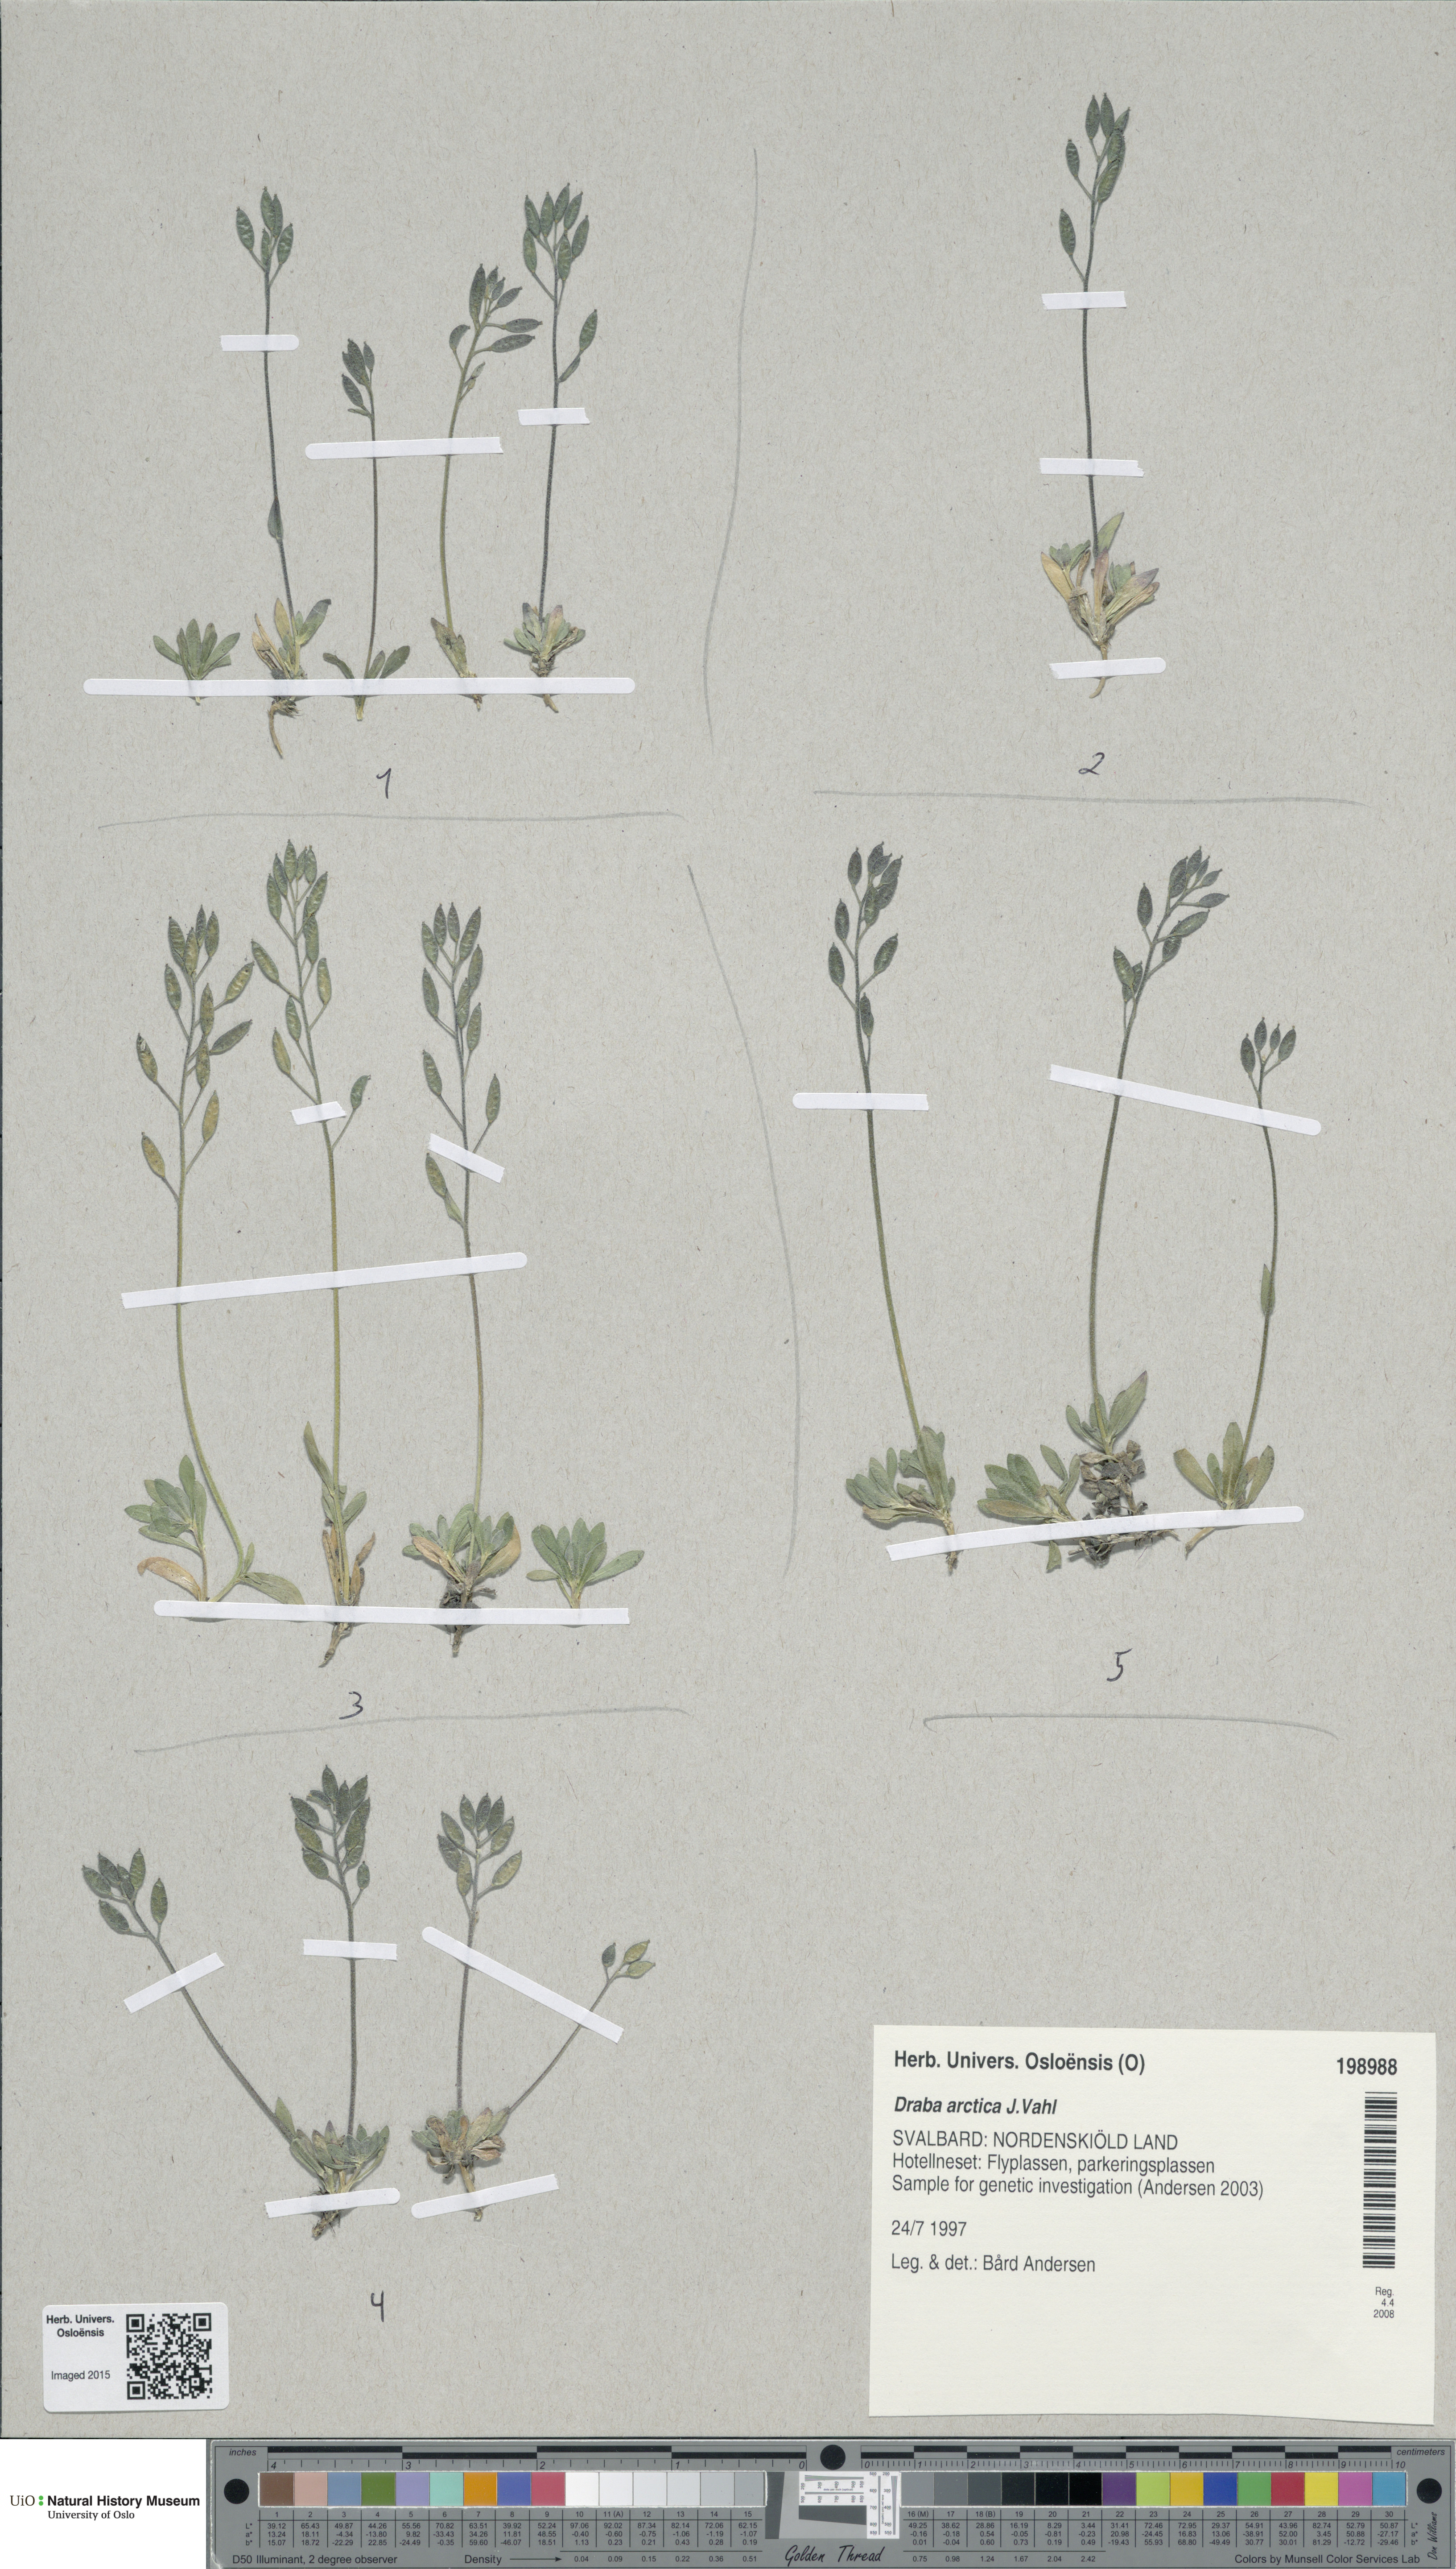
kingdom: Plantae
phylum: Tracheophyta
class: Magnoliopsida
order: Brassicales
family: Brassicaceae
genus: Draba
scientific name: Draba arctica
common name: Arctic draba
